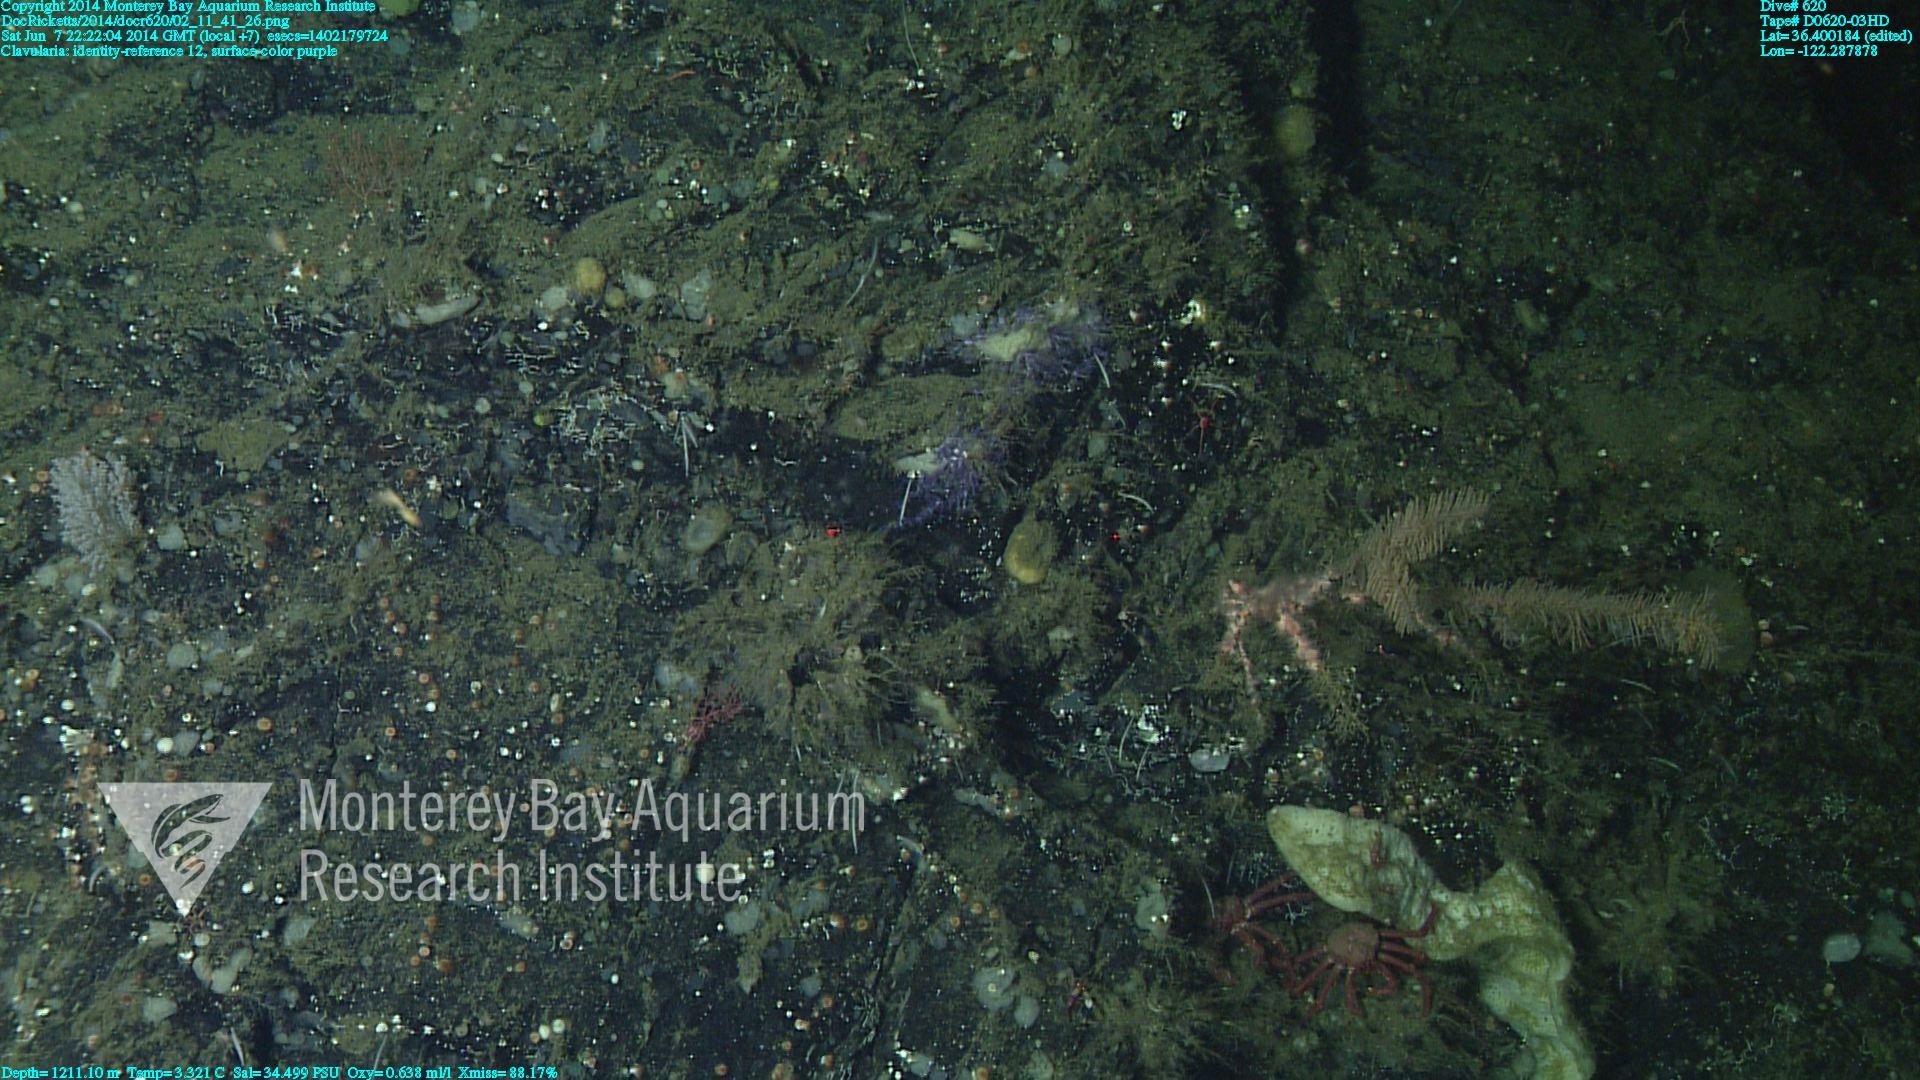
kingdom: Animalia
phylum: Cnidaria
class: Anthozoa
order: Malacalcyonacea
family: Clavulariidae
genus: Clavularia
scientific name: Clavularia
